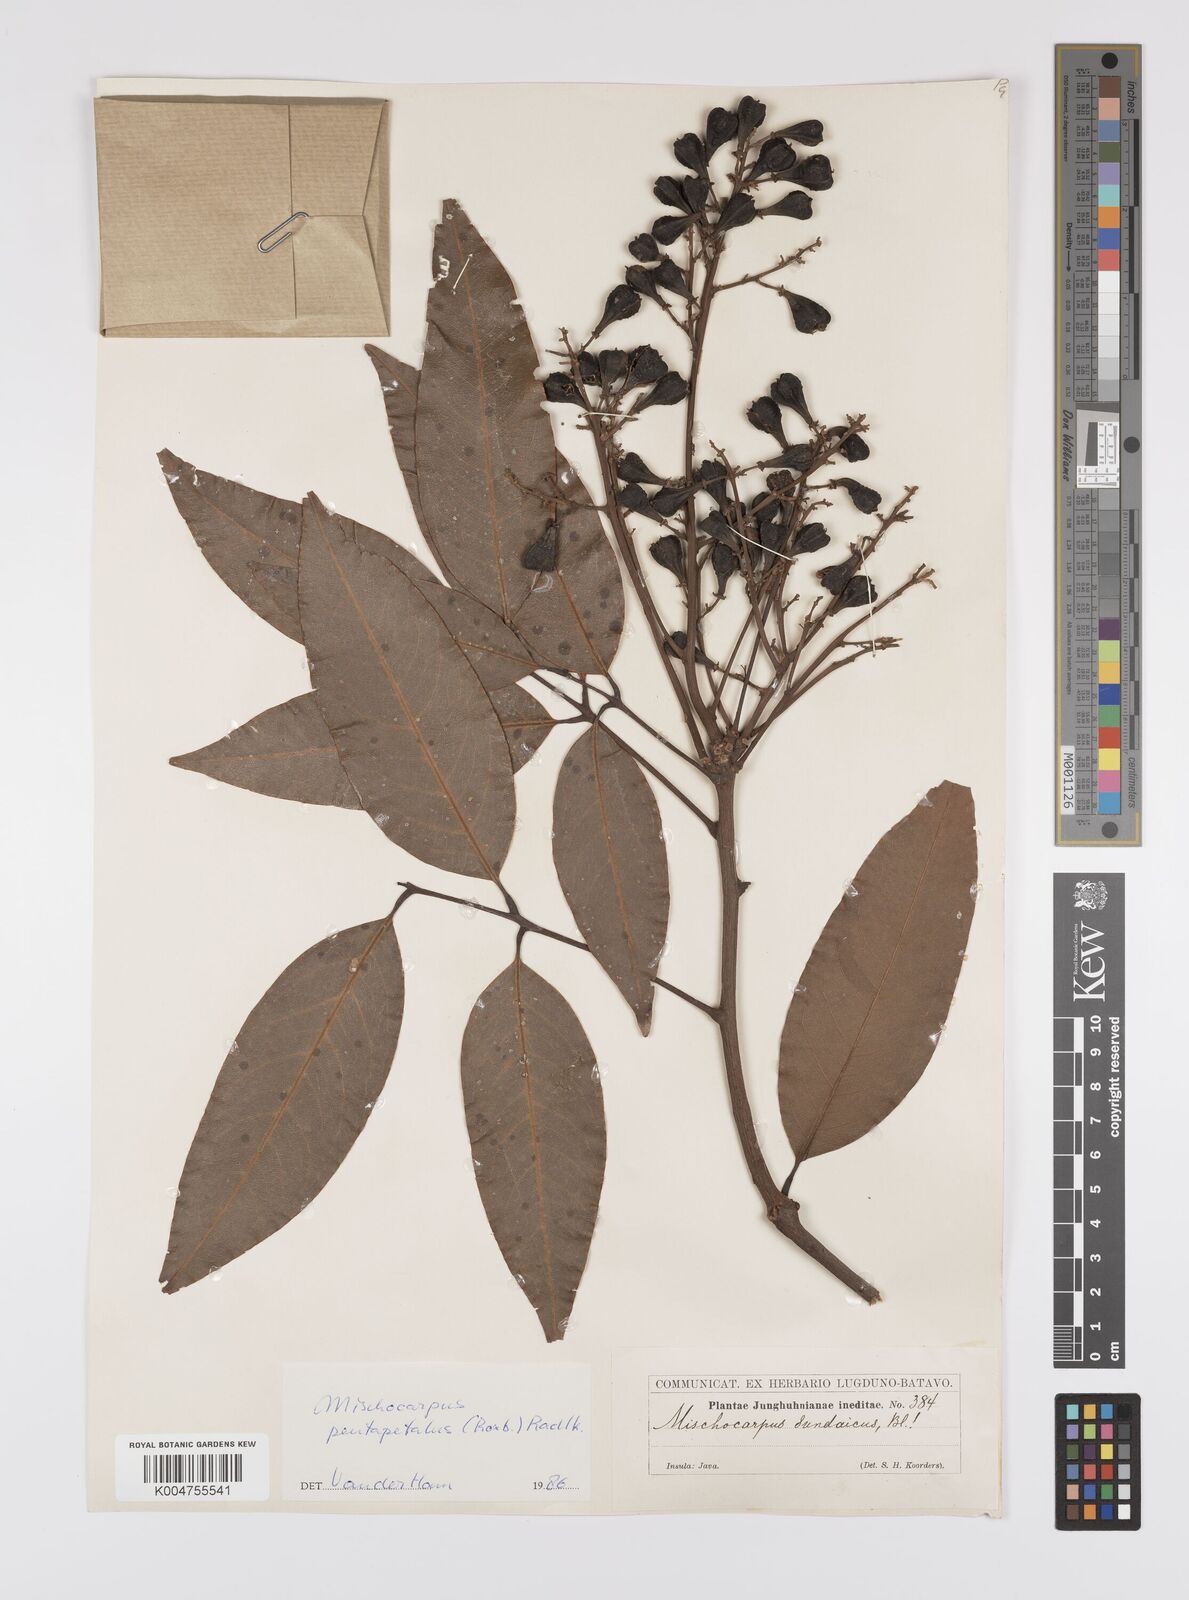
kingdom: Plantae
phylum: Tracheophyta
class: Magnoliopsida
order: Sapindales
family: Sapindaceae
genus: Mischocarpus
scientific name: Mischocarpus pentapetalus
